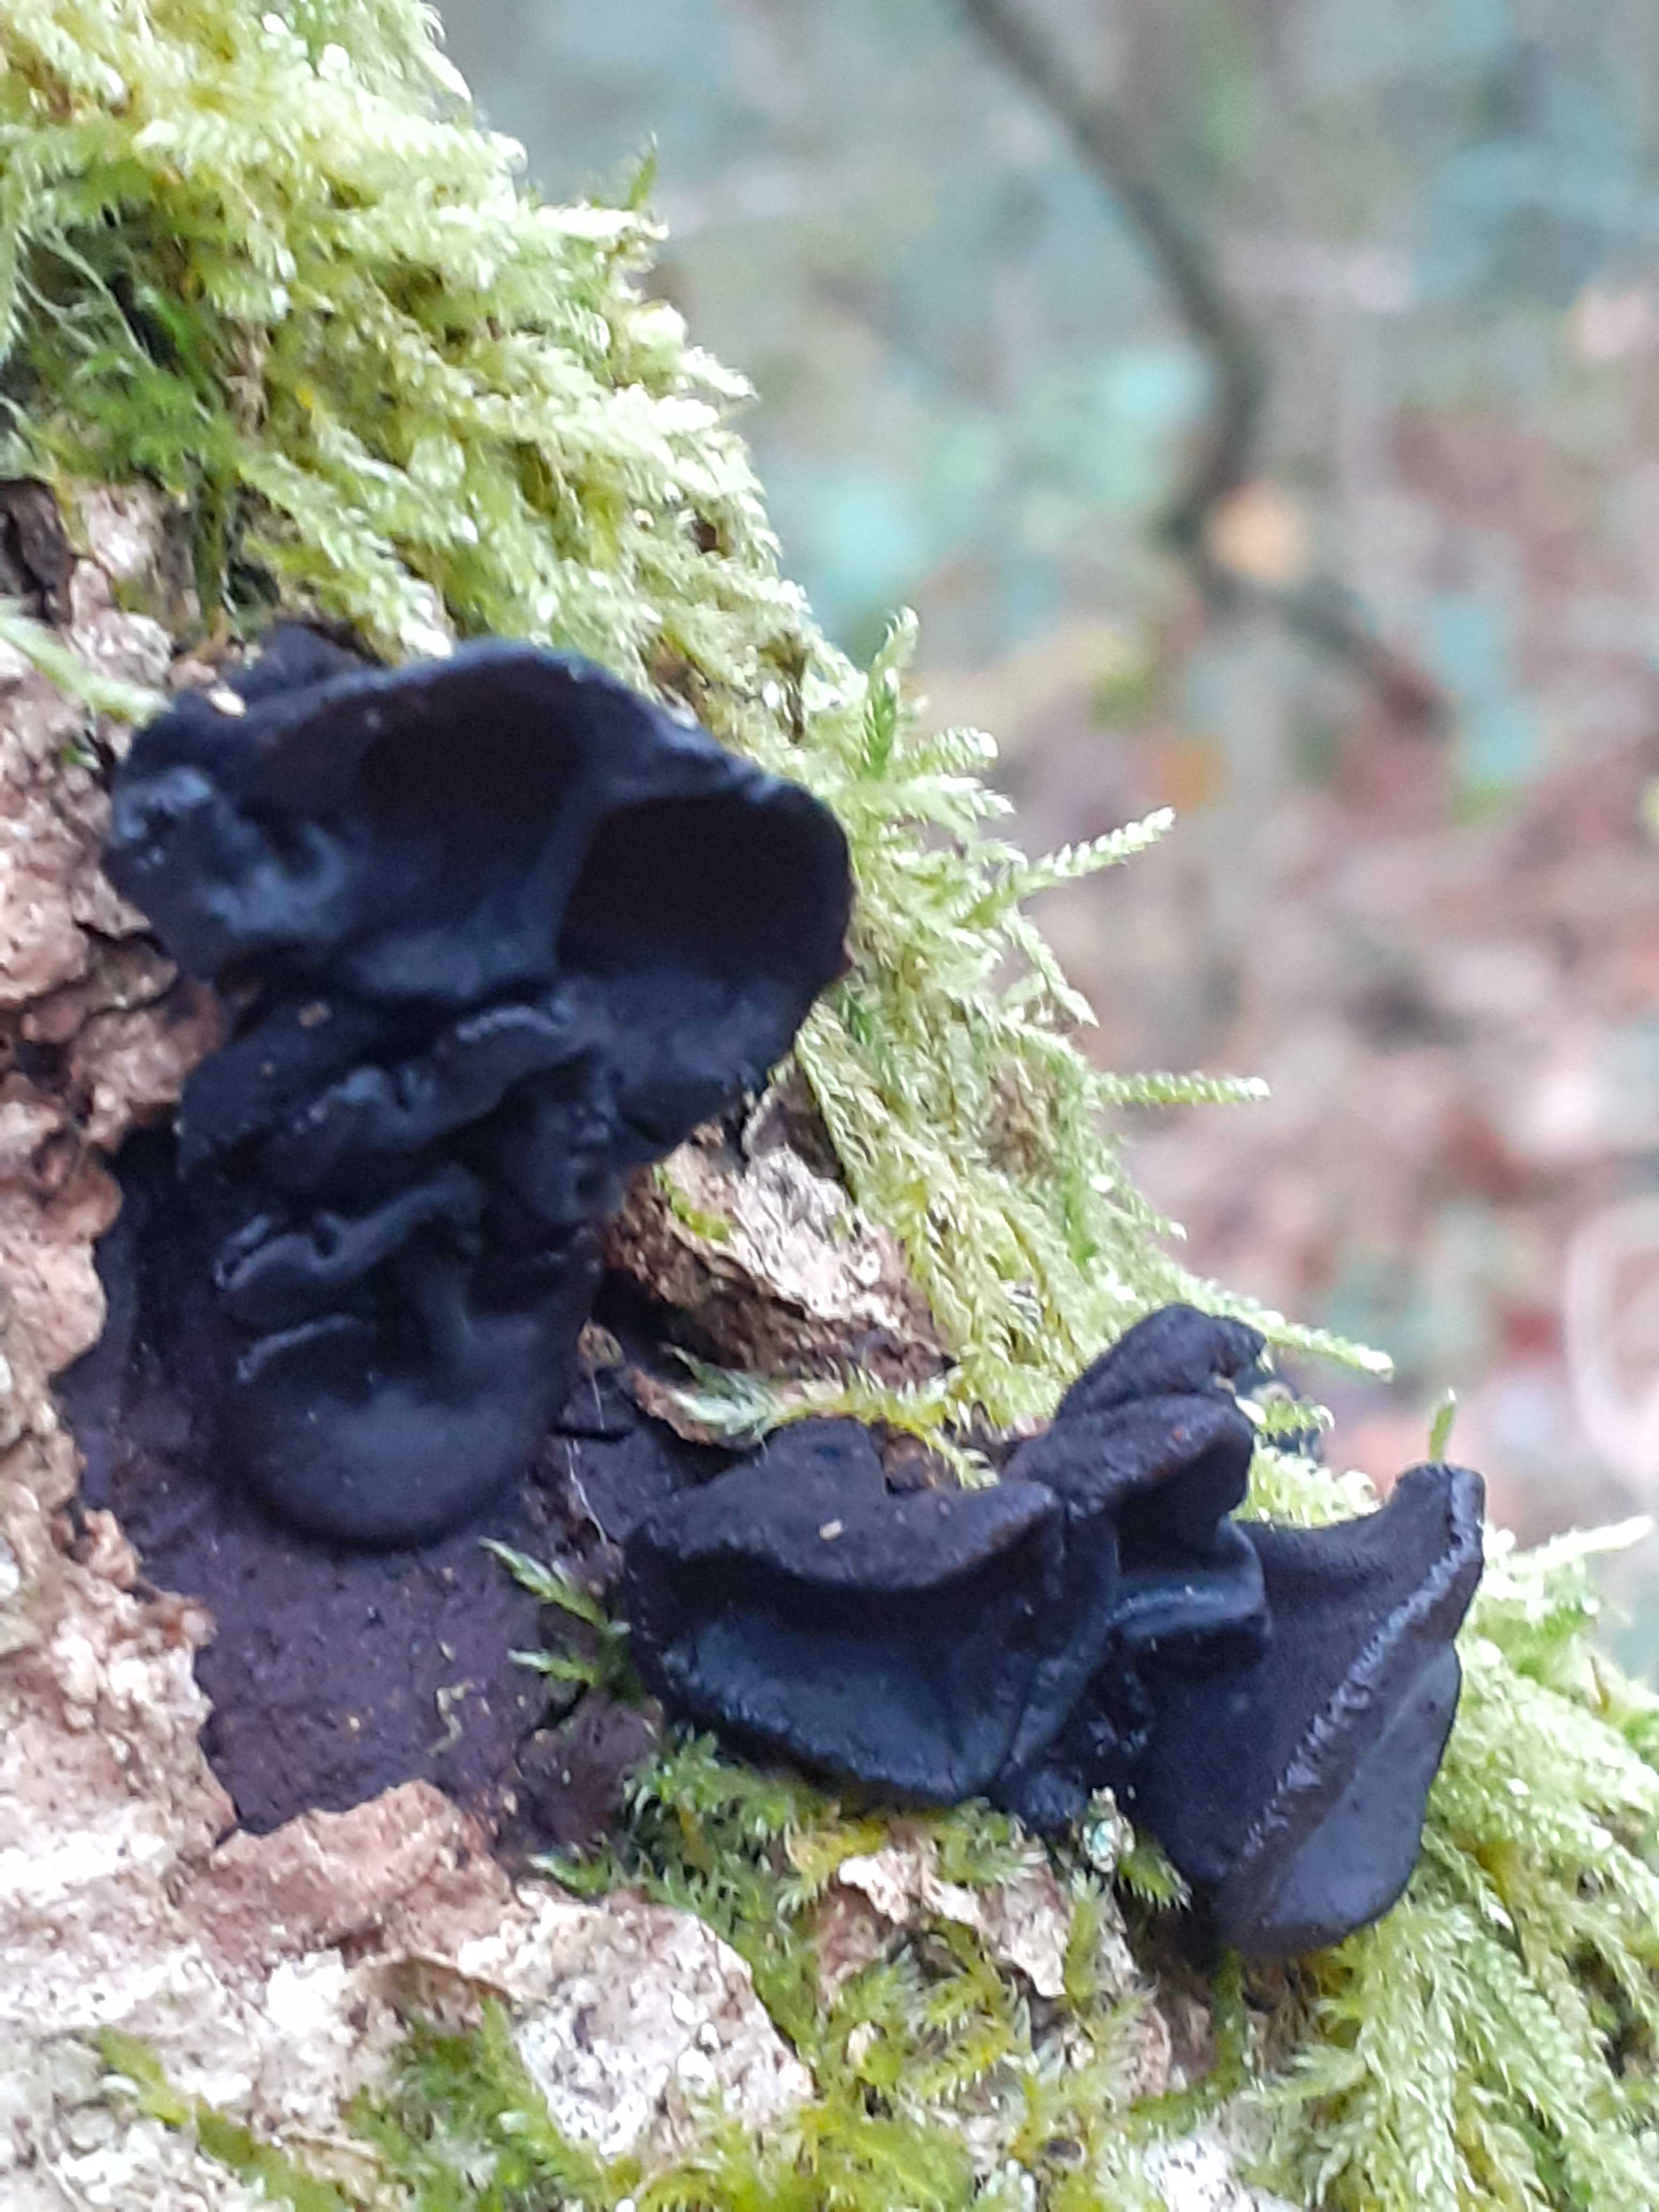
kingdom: Fungi
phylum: Basidiomycota
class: Agaricomycetes
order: Auriculariales
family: Auriculariaceae
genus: Exidia
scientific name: Exidia glandulosa
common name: ege-bævretop
